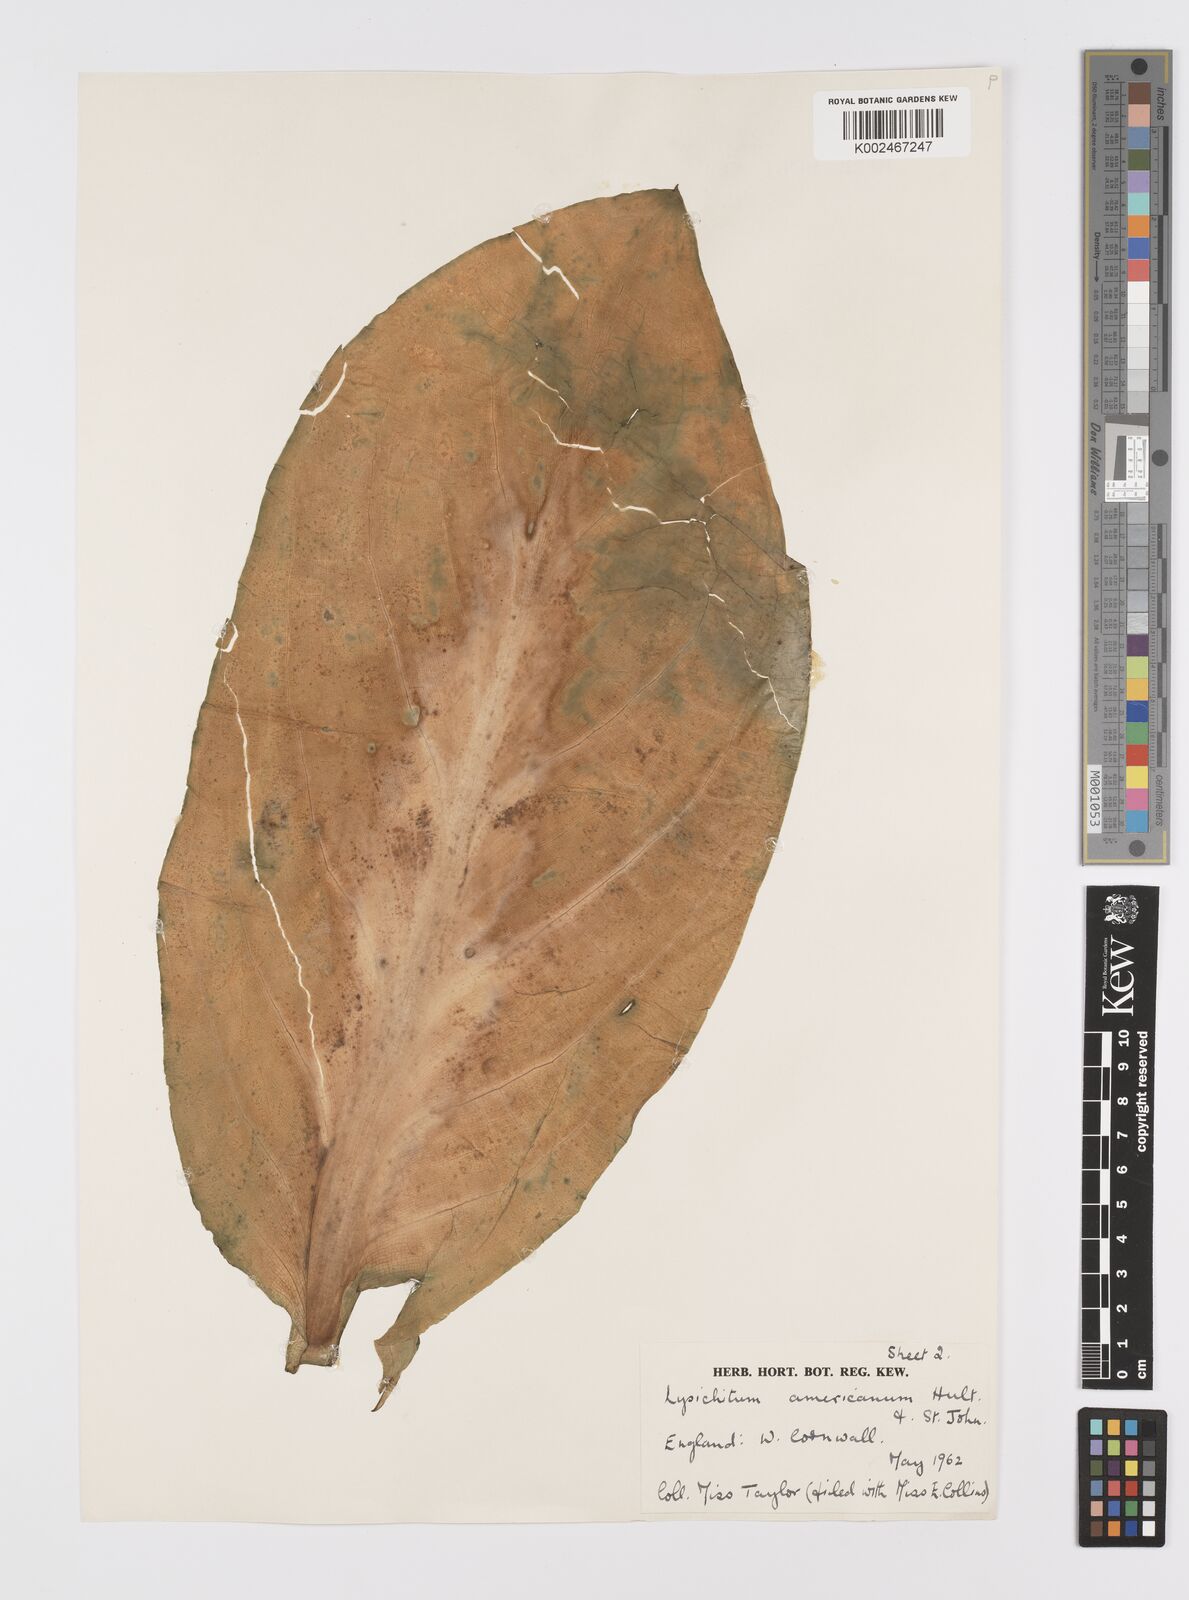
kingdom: Plantae
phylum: Tracheophyta
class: Liliopsida
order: Alismatales
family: Araceae
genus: Lysichiton
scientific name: Lysichiton americanus
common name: American skunk cabbage
